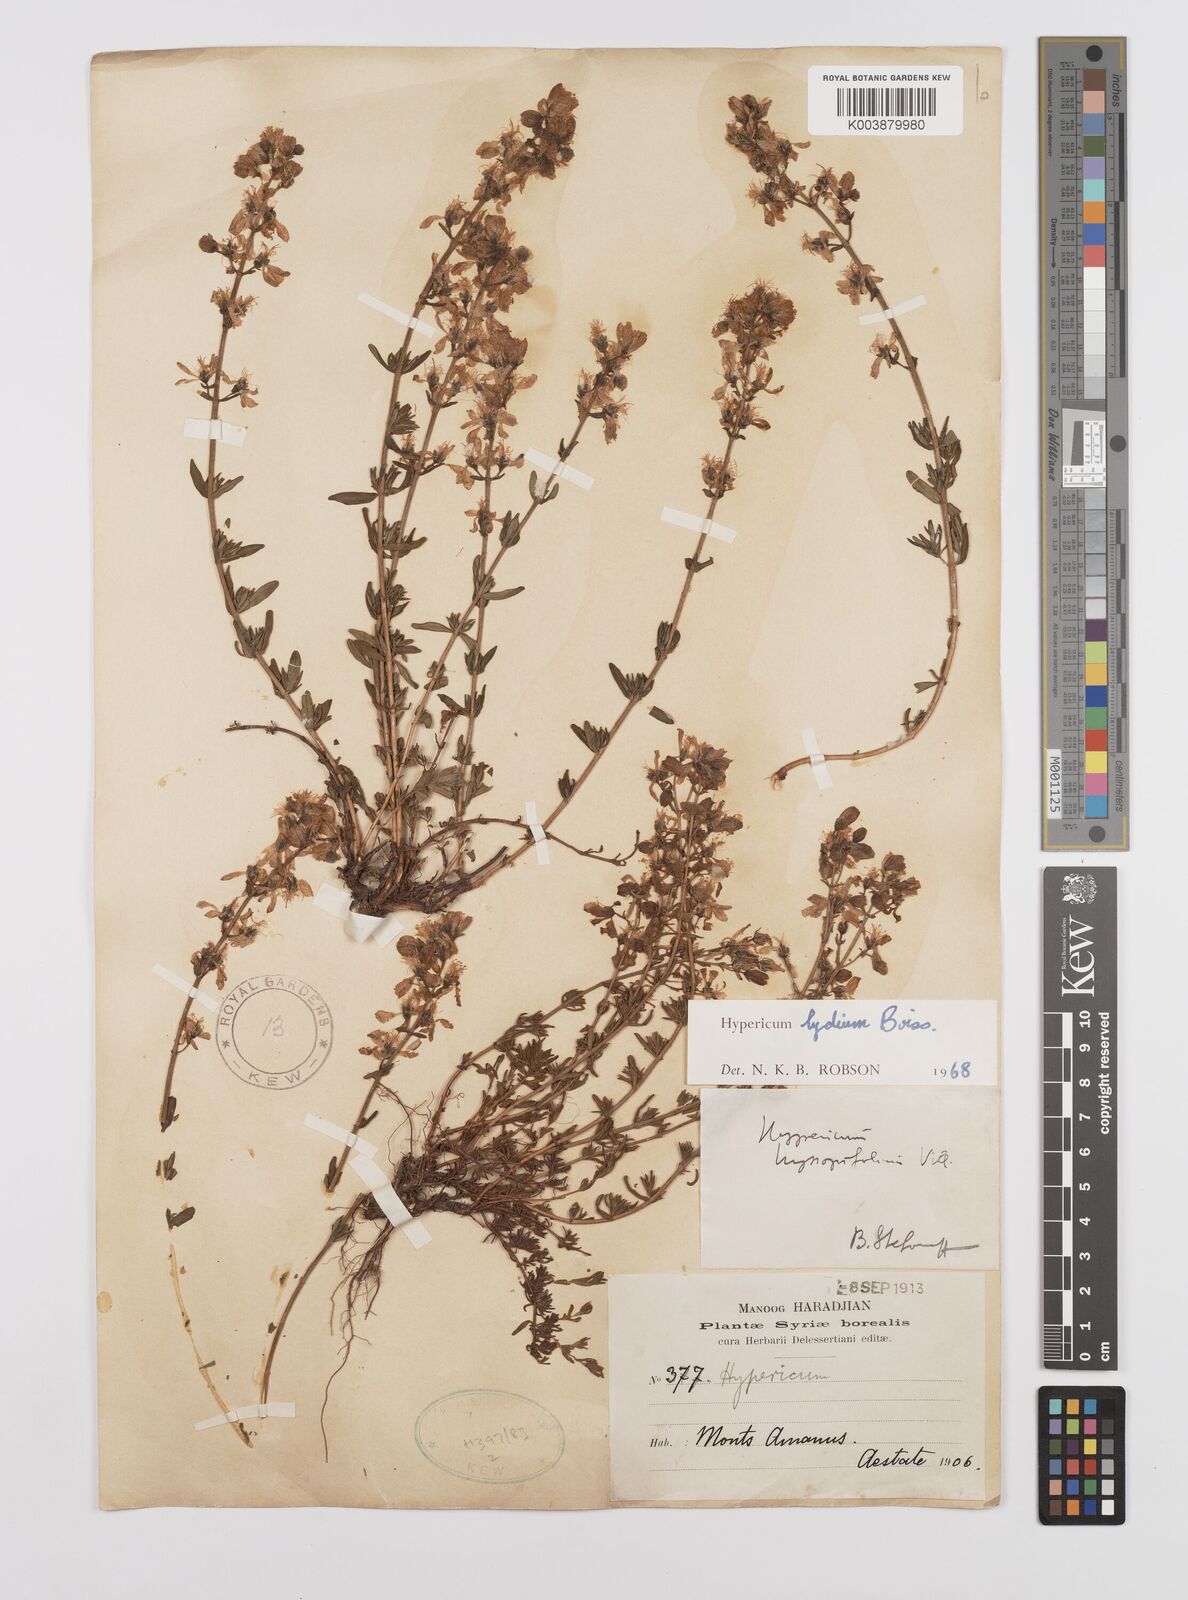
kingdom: Plantae
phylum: Tracheophyta
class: Magnoliopsida
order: Malpighiales
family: Hypericaceae
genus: Hypericum
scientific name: Hypericum lydium
